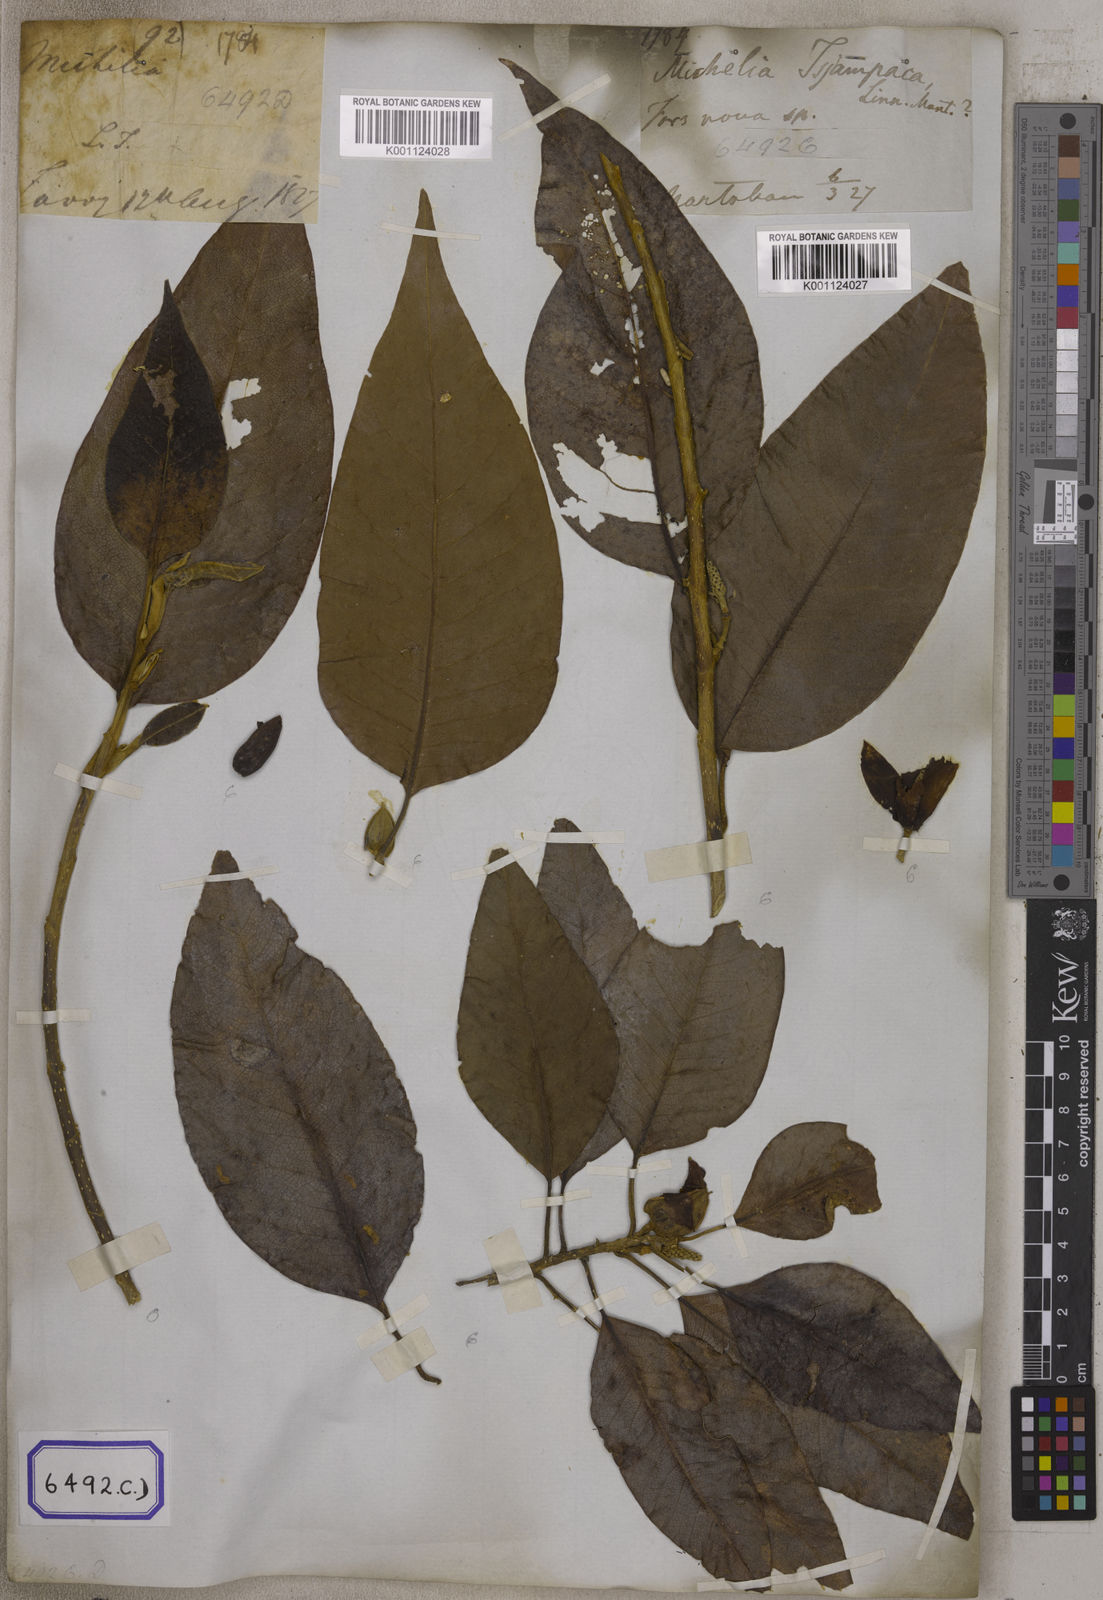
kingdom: Plantae
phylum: Tracheophyta
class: Magnoliopsida
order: Magnoliales
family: Magnoliaceae
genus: Magnolia
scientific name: Magnolia champaca
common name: Champak
